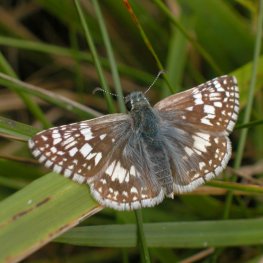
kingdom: Animalia
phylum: Arthropoda
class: Insecta
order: Lepidoptera
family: Hesperiidae
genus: Pyrgus
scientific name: Pyrgus communis
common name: Common Checkered-Skipper
